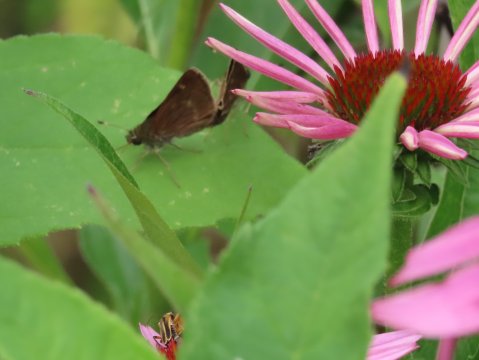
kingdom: Animalia
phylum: Arthropoda
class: Insecta
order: Lepidoptera
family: Hesperiidae
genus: Vernia
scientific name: Vernia verna
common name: Little Glassywing
